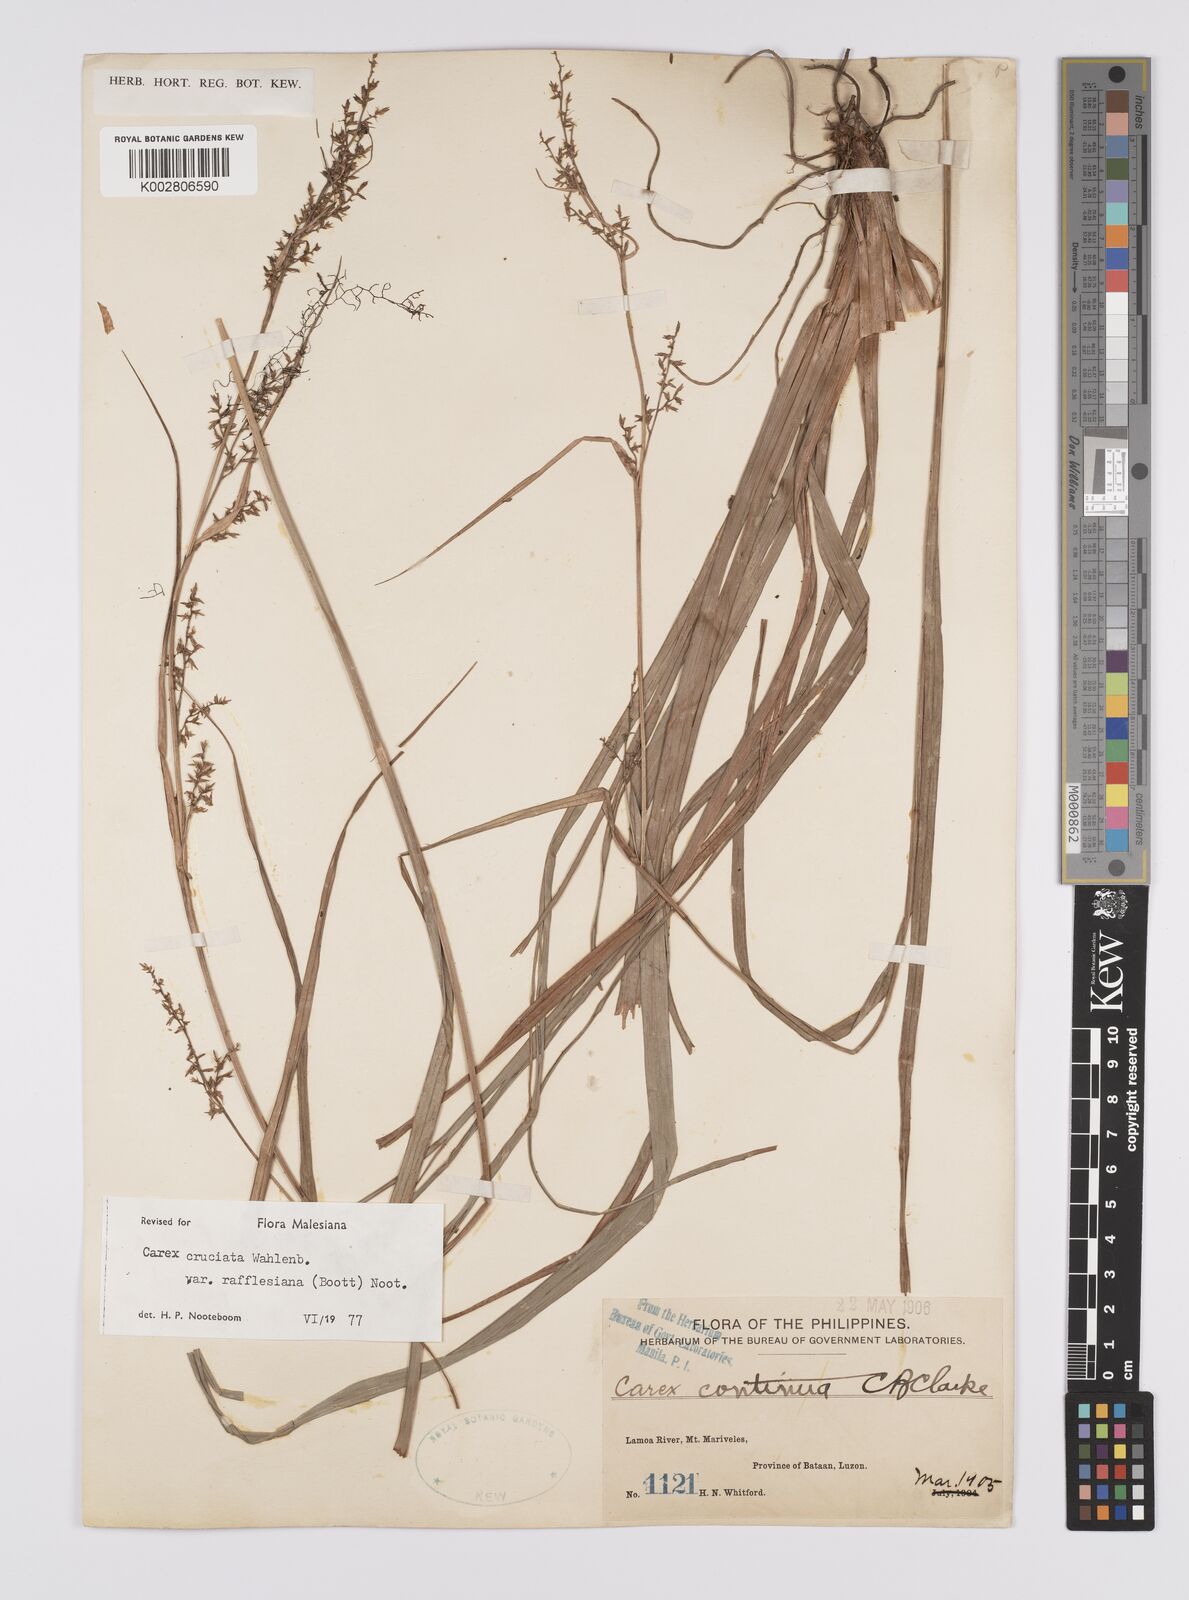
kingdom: Plantae
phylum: Tracheophyta
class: Liliopsida
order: Poales
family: Cyperaceae
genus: Carex
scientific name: Carex rafflesiana
